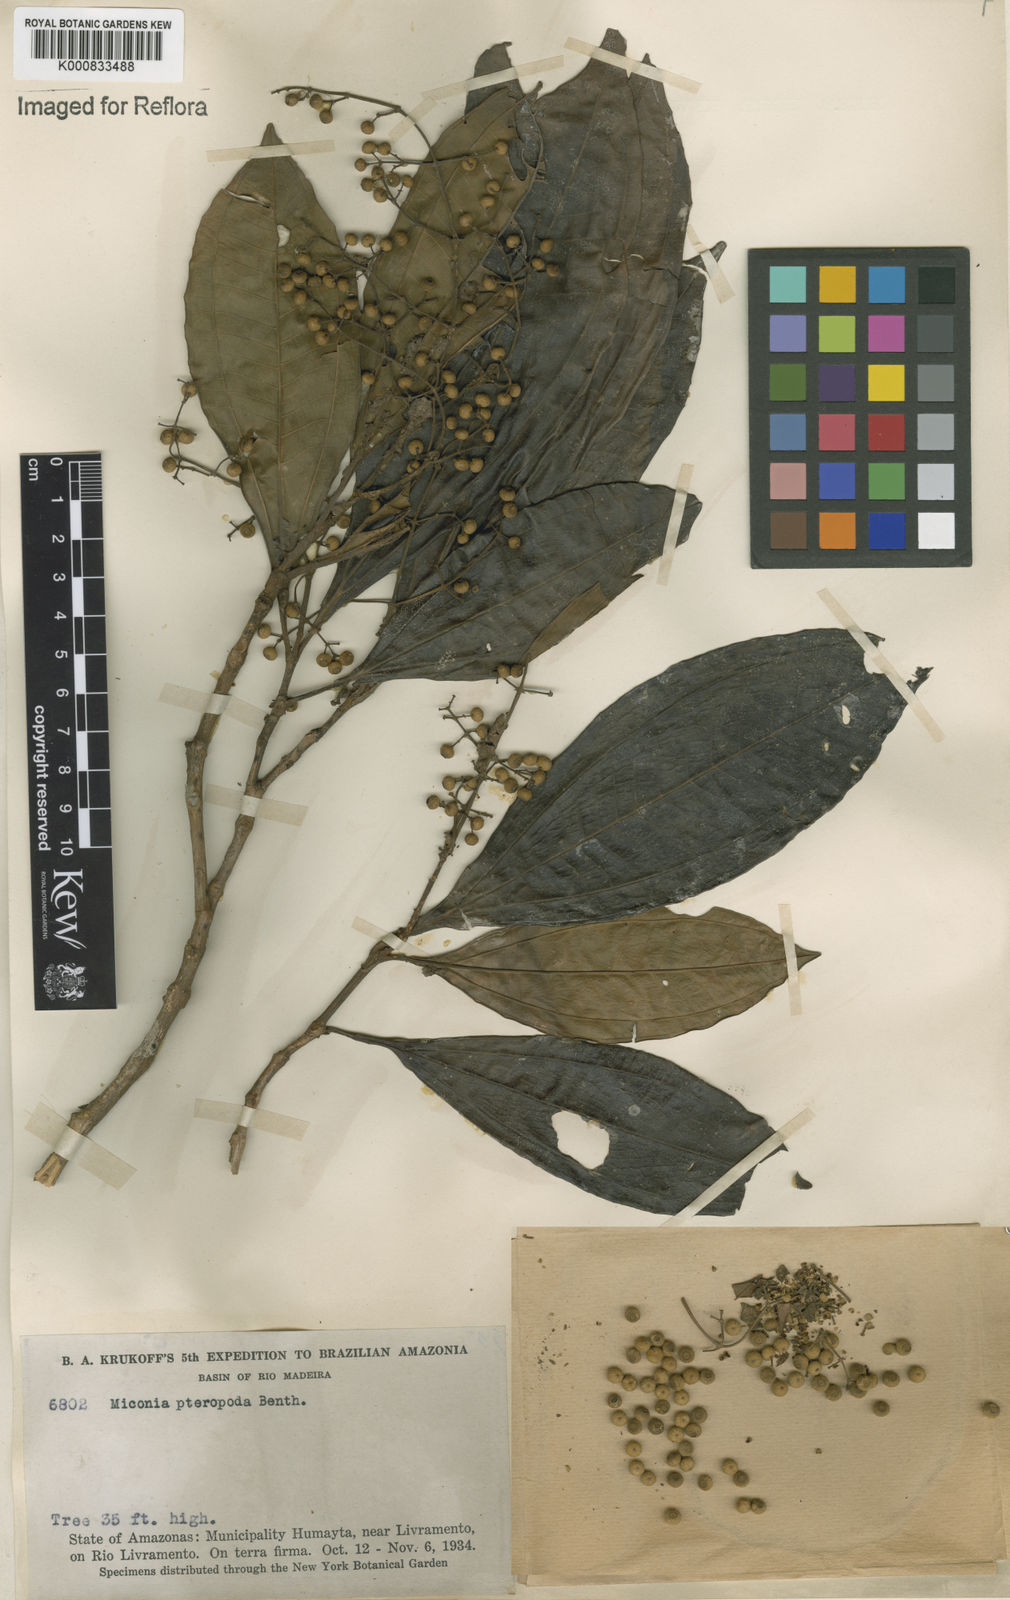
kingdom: Plantae
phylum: Tracheophyta
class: Magnoliopsida
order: Myrtales
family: Melastomataceae
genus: Miconia
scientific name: Miconia umbrosa
